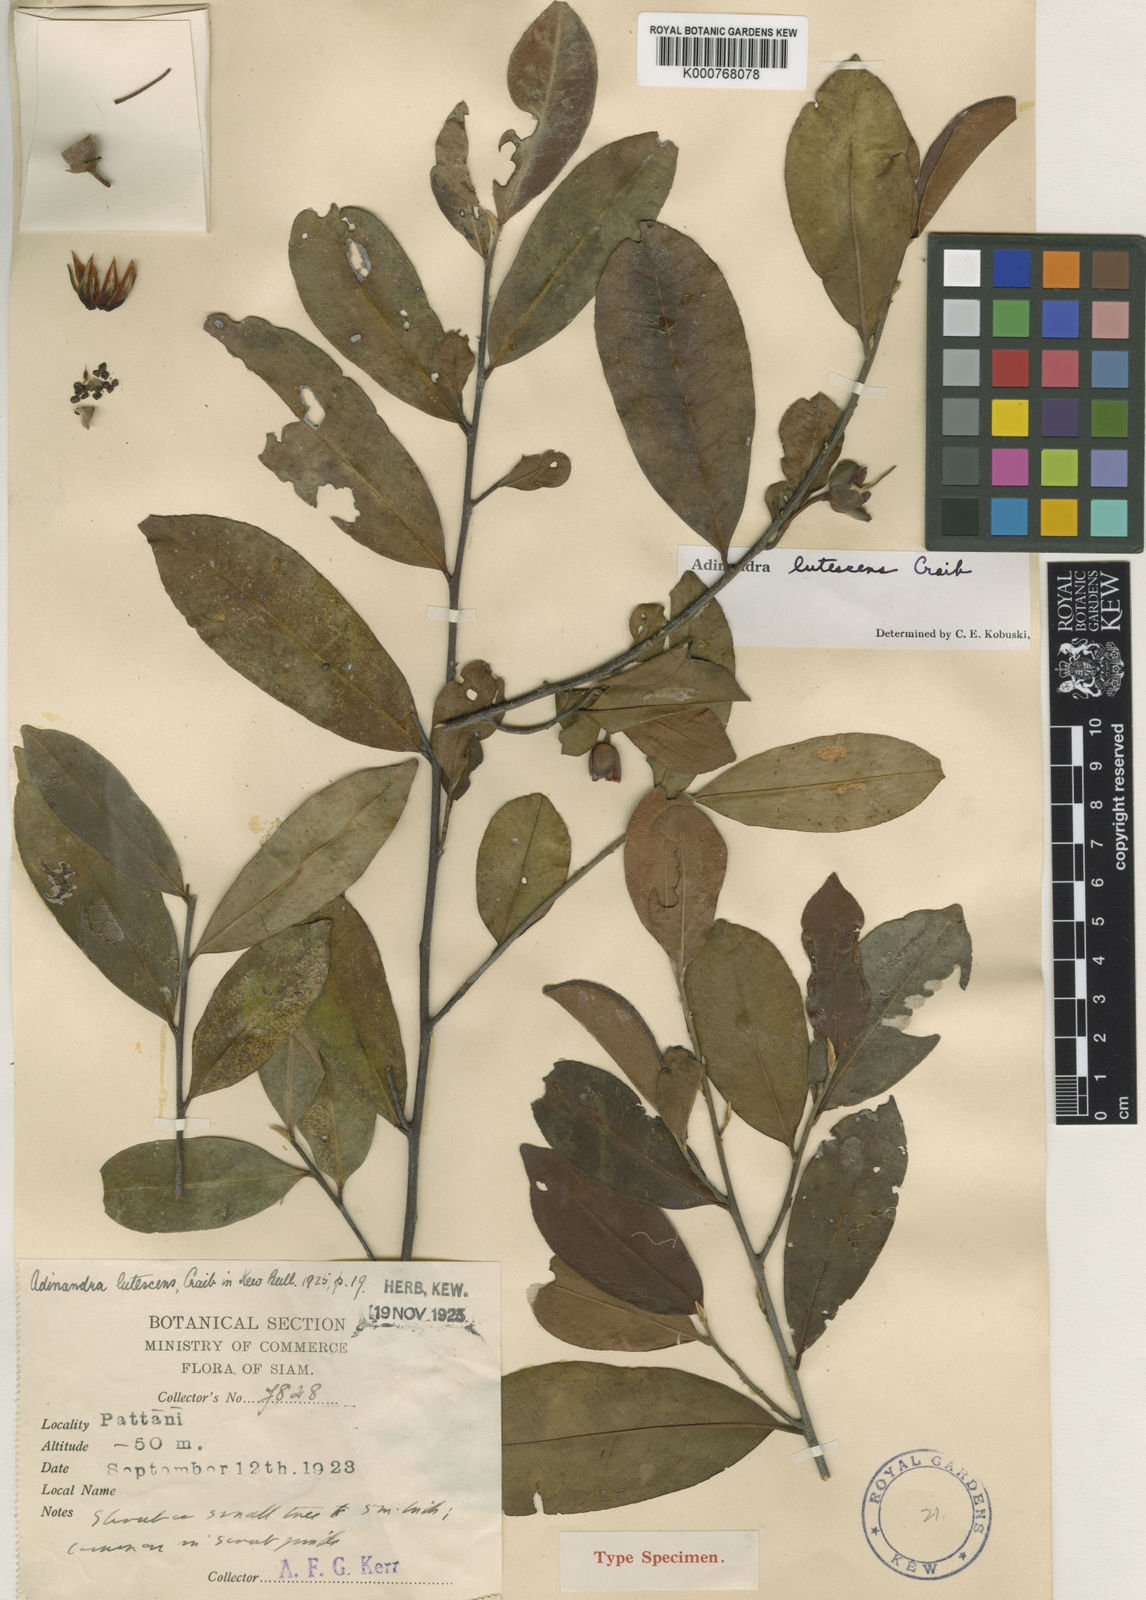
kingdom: Plantae
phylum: Tracheophyta
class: Magnoliopsida
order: Ericales
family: Pentaphylacaceae
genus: Adinandra
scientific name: Adinandra integerrima
